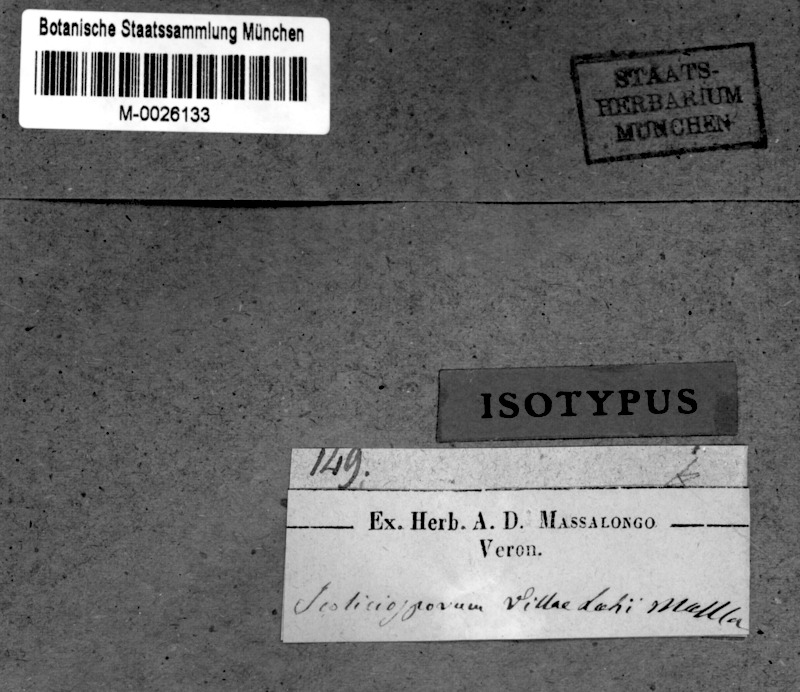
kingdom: Fungi
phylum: Ascomycota
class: Lecanoromycetes
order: Lecanorales
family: Ramalinaceae
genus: Bacidia
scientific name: Bacidia
